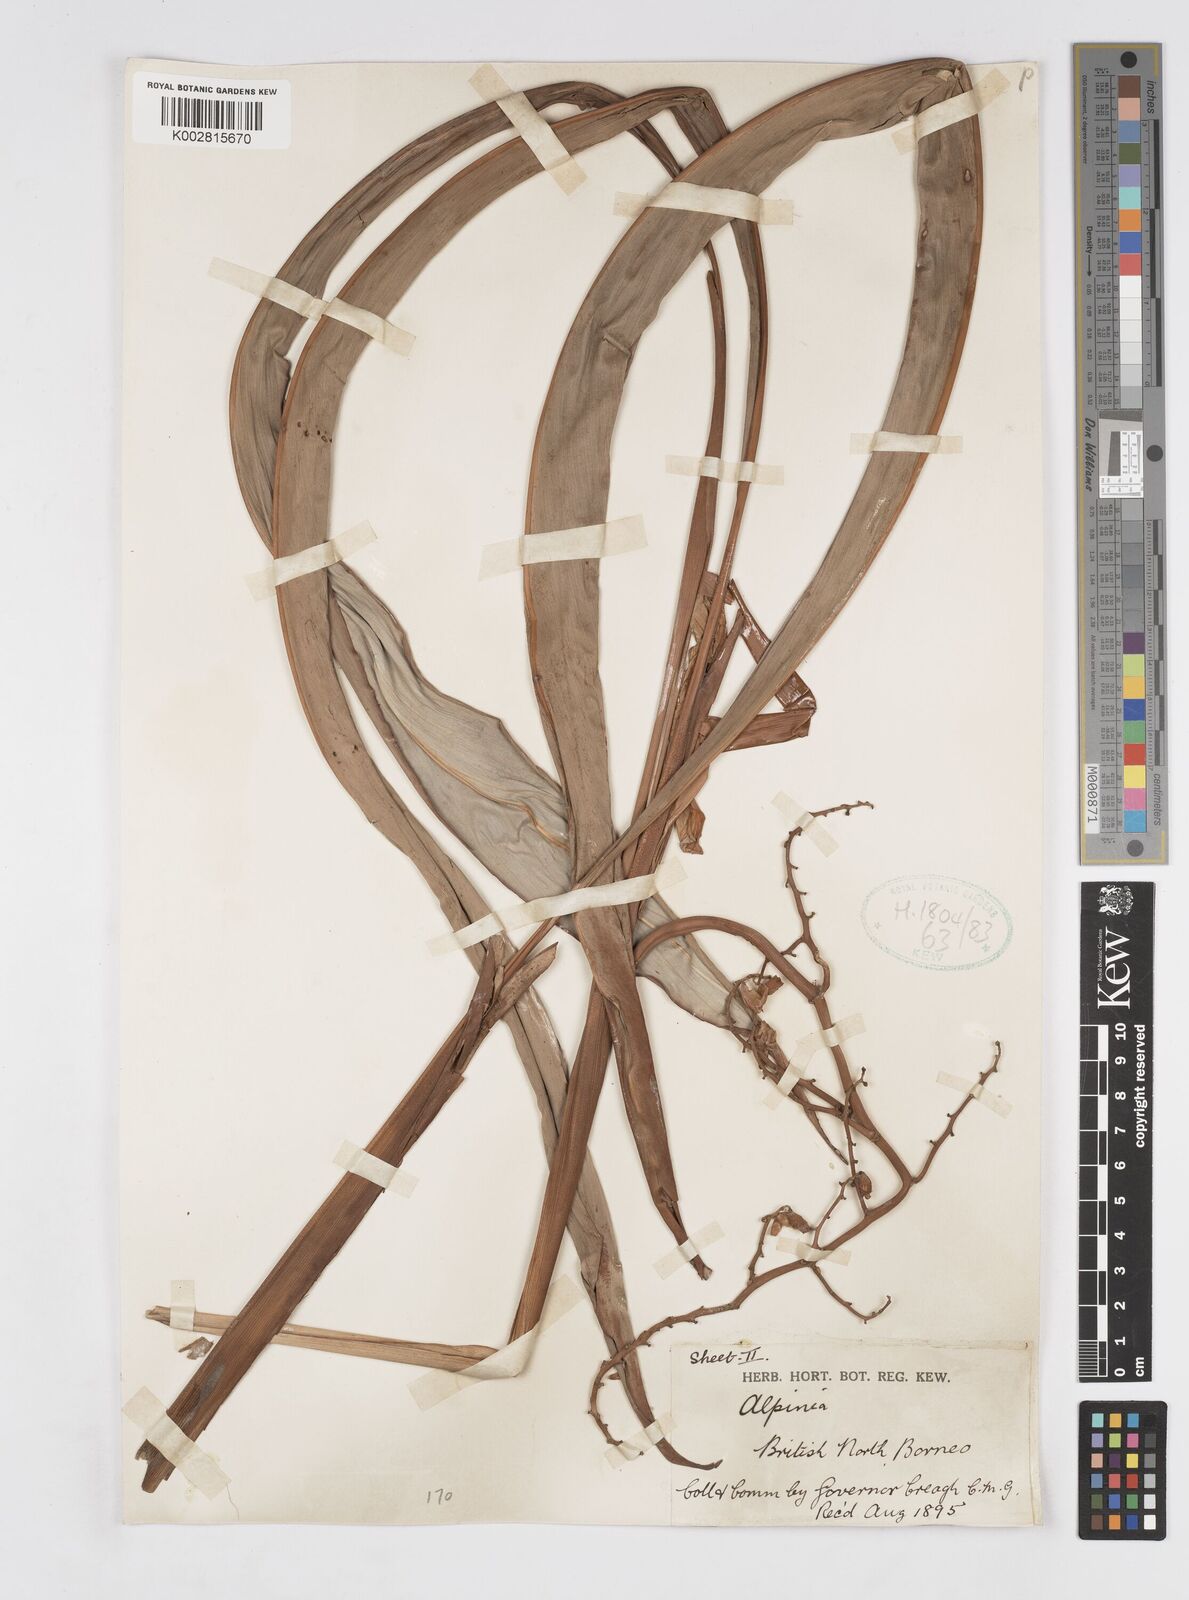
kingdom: Plantae
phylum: Tracheophyta
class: Liliopsida
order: Zingiberales
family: Zingiberaceae
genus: Alpinia
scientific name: Alpinia ligulata
